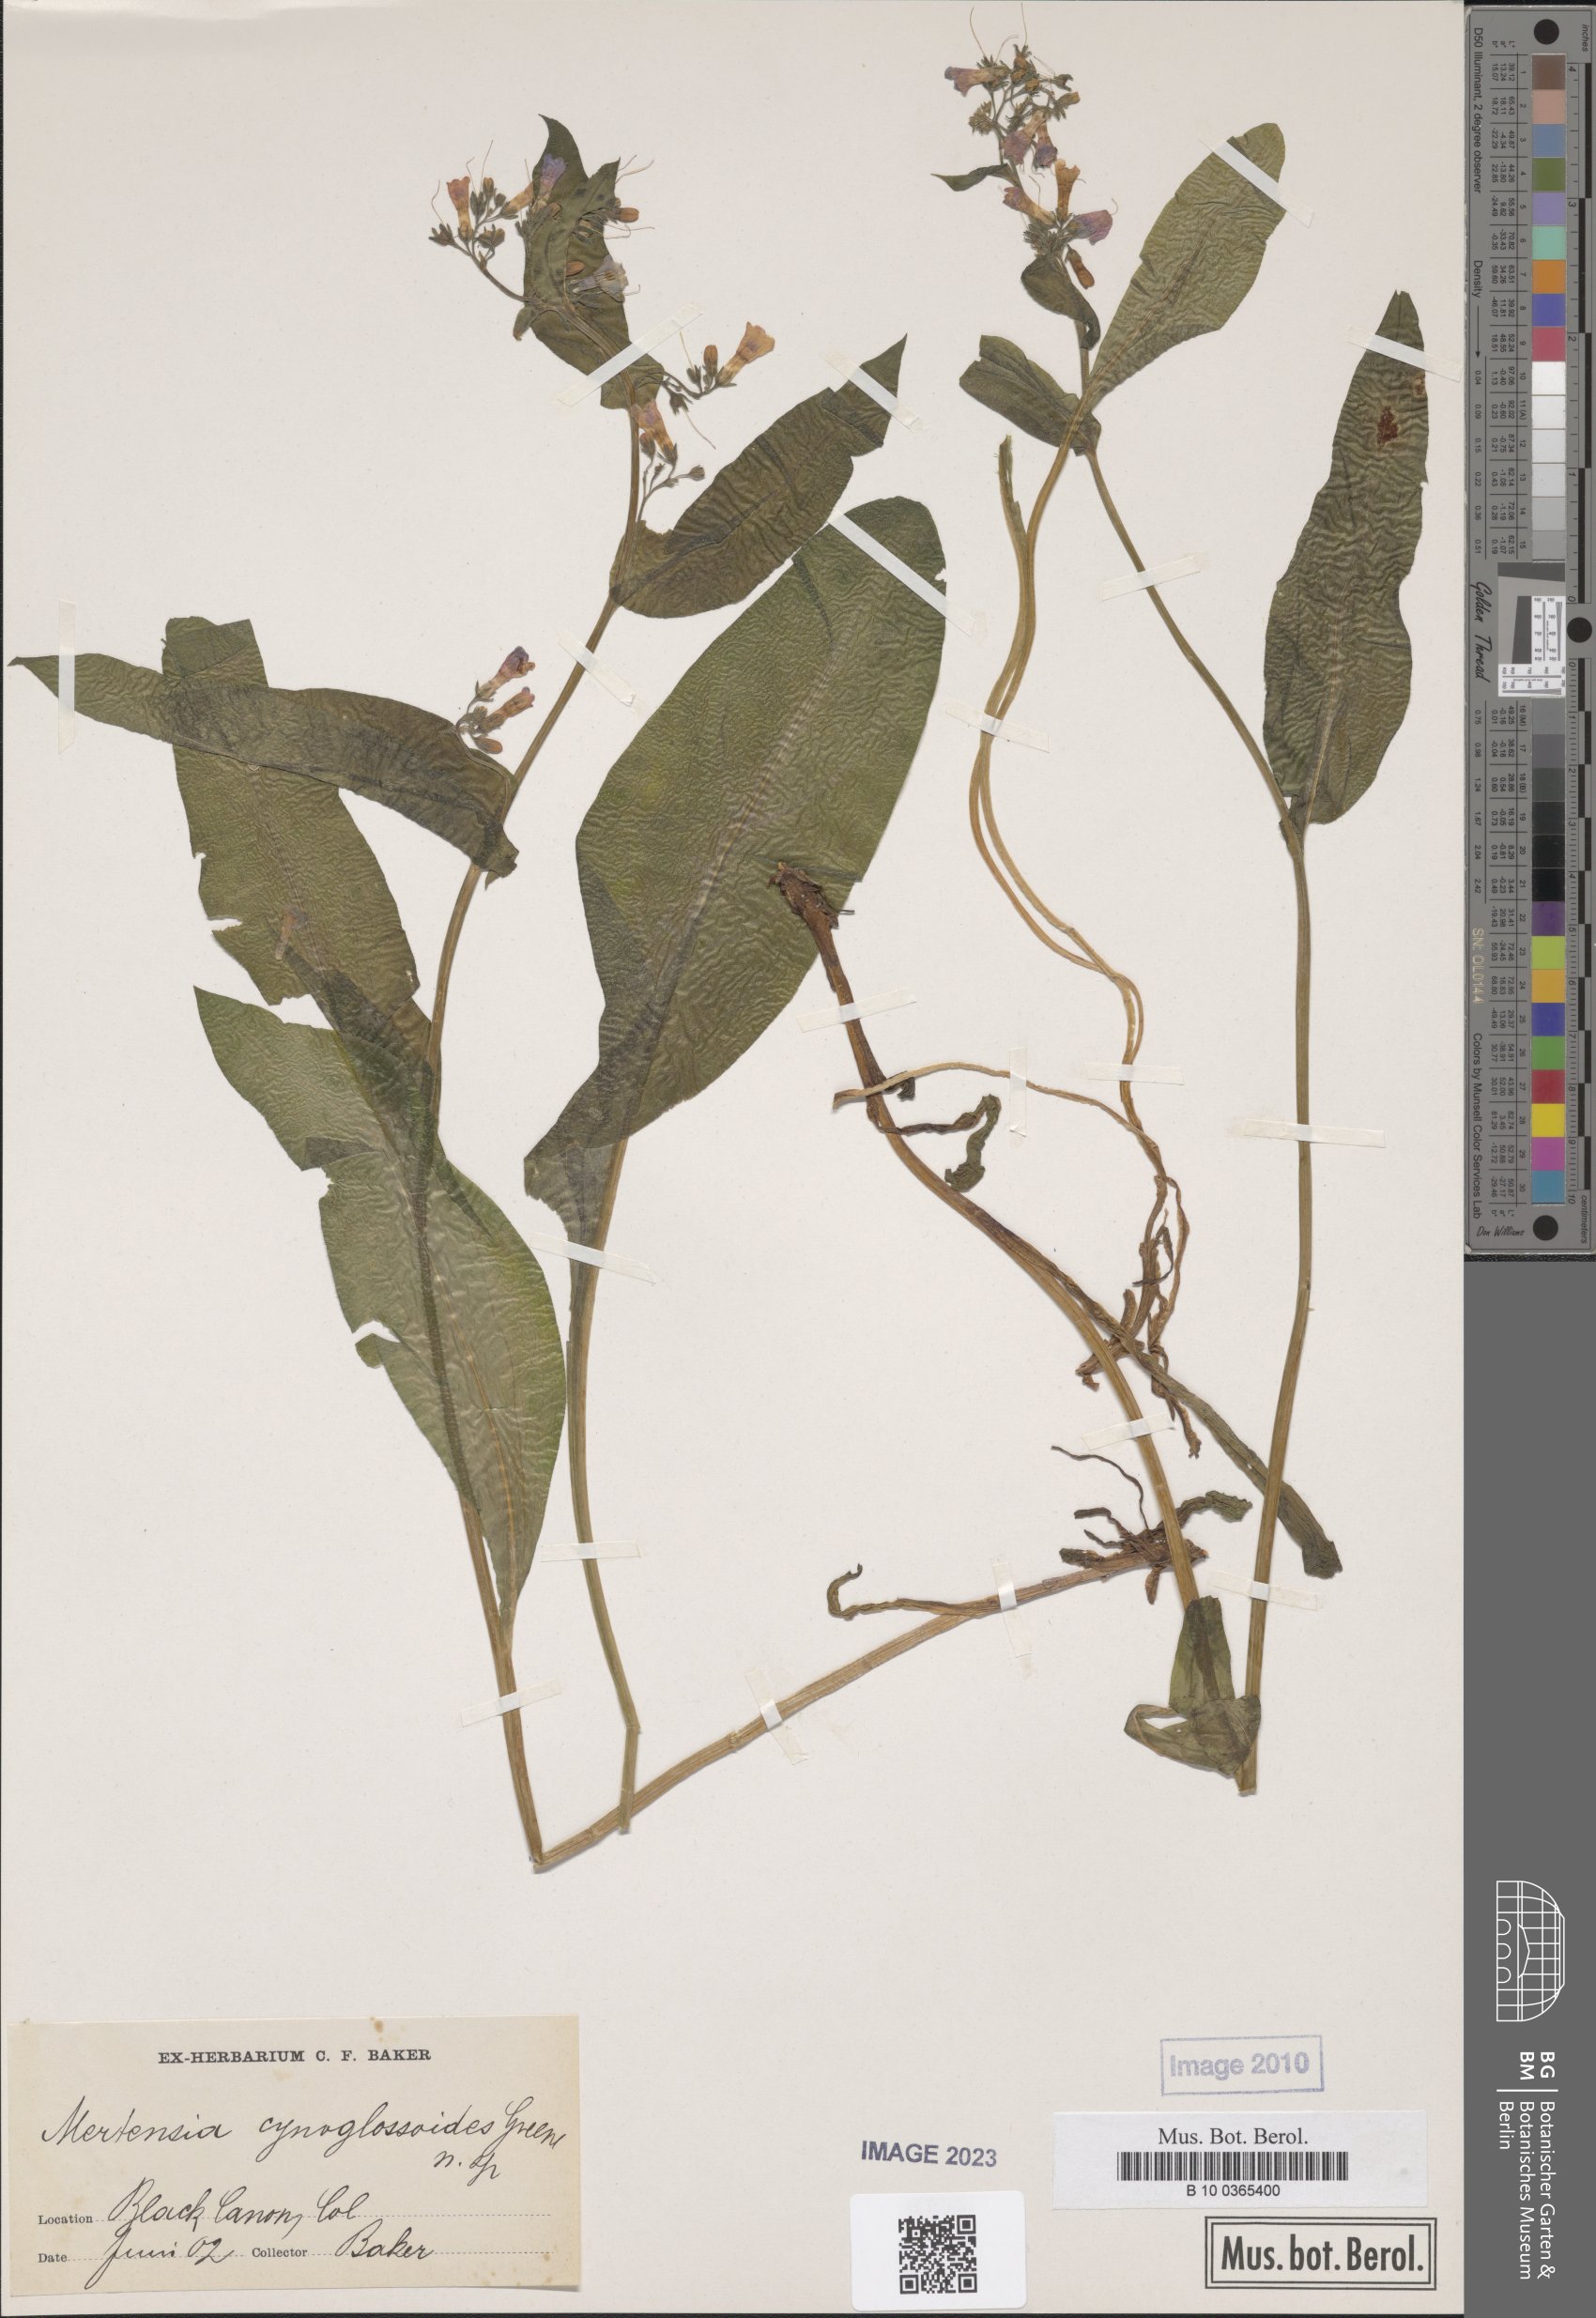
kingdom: Plantae
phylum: Tracheophyta
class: Magnoliopsida
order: Boraginales
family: Boraginaceae
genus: Mertensia
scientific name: Mertensia cynoglossoides
